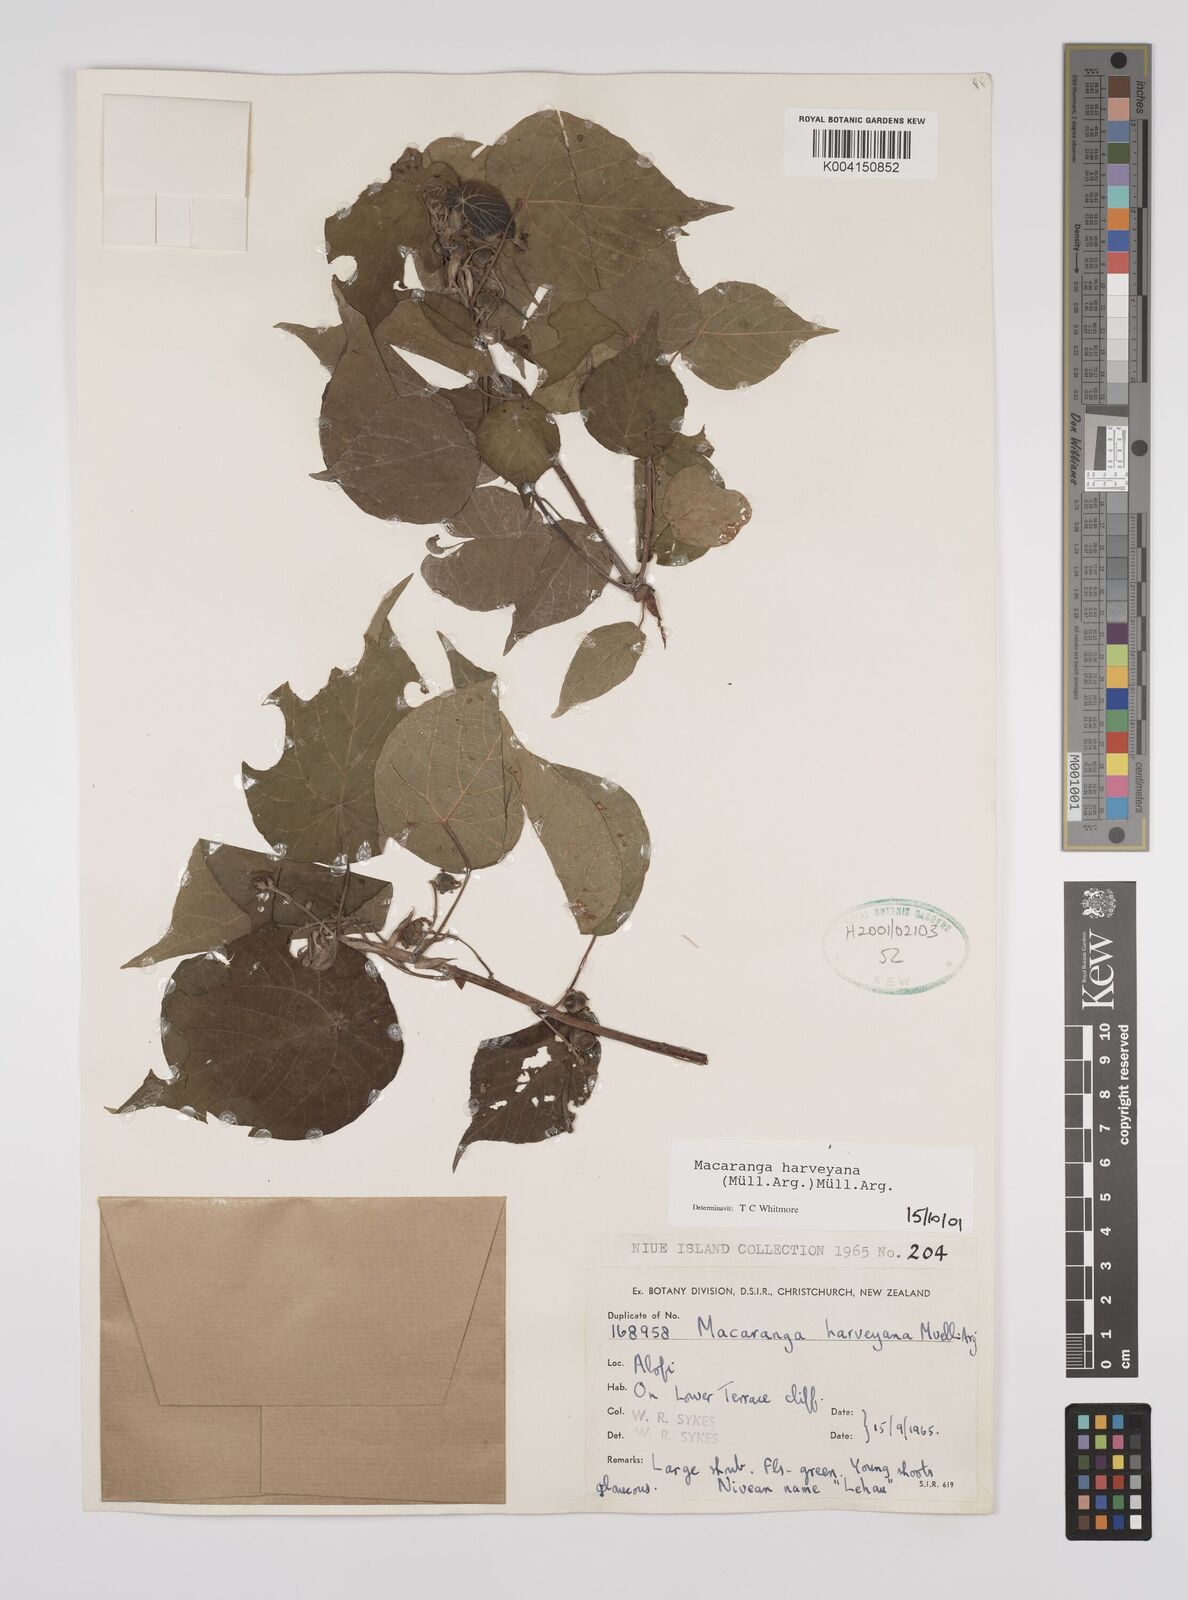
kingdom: Plantae
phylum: Tracheophyta
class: Magnoliopsida
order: Malpighiales
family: Euphorbiaceae
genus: Macaranga
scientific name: Macaranga harveyana
